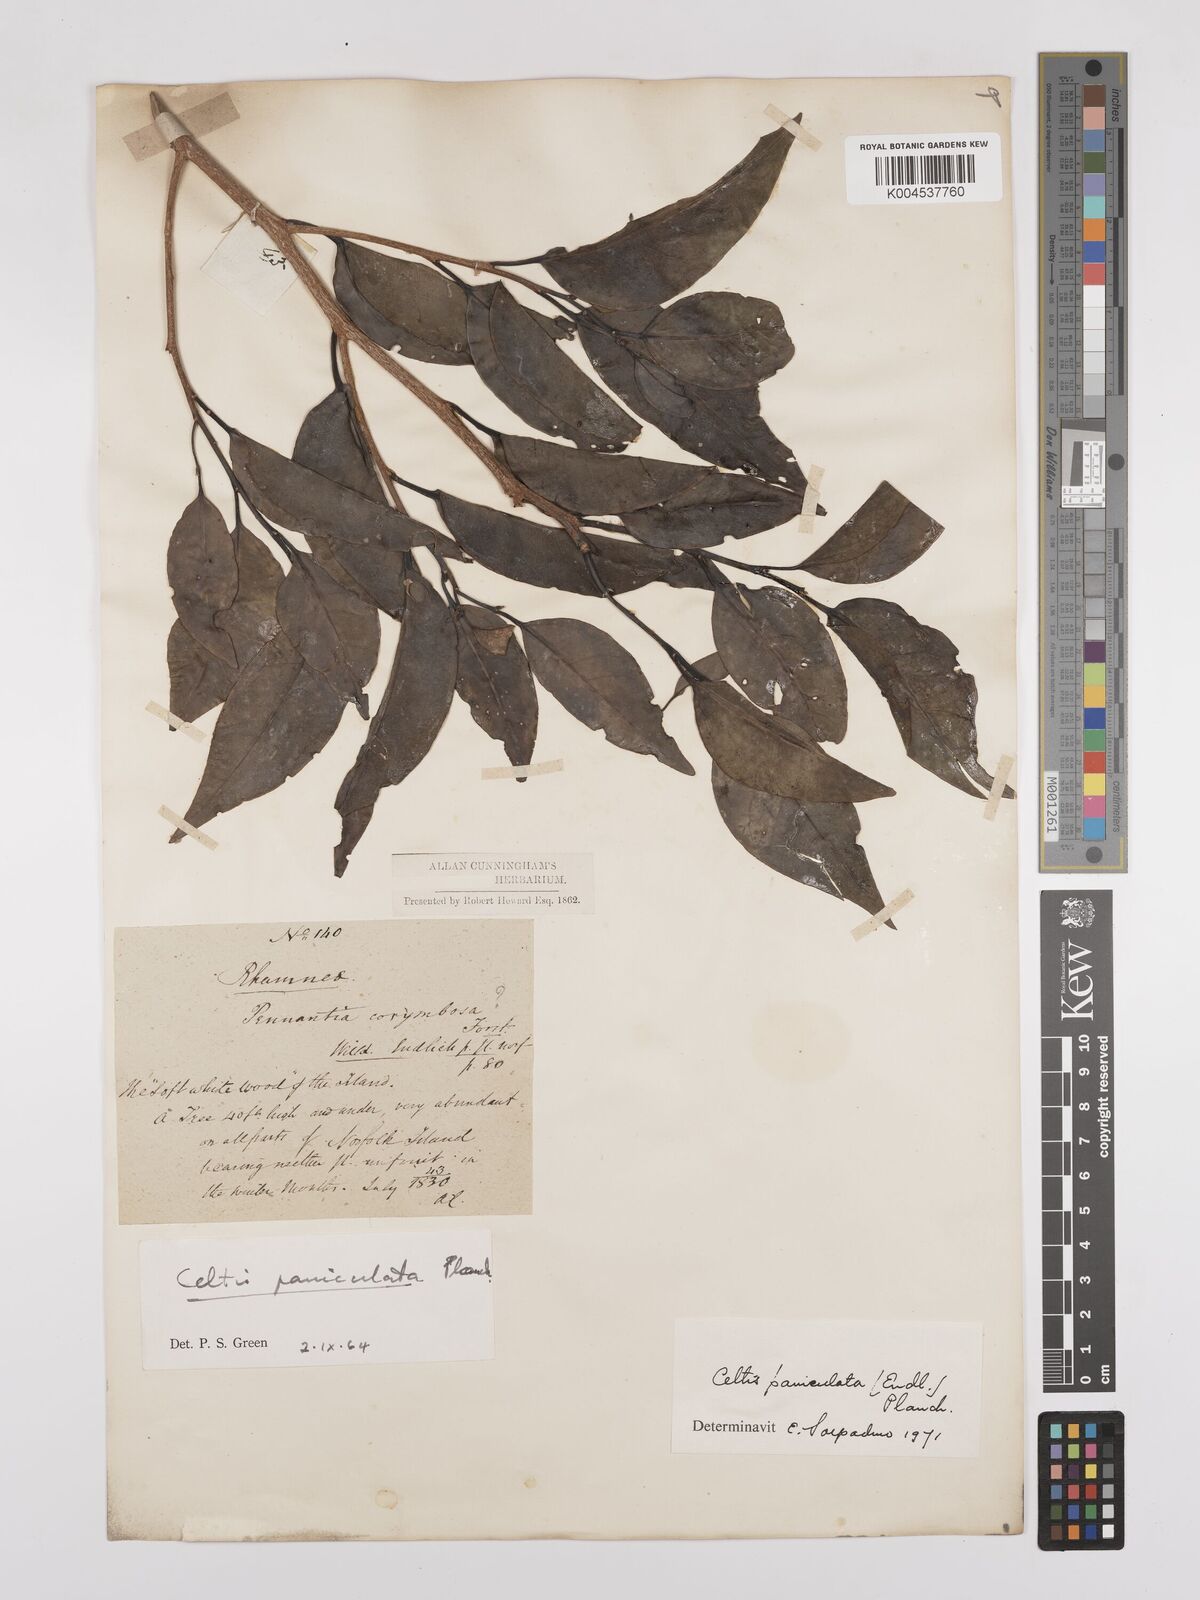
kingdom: Plantae
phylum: Tracheophyta
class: Magnoliopsida
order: Rosales
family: Cannabaceae
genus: Celtis
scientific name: Celtis paniculata
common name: Silky celtis
